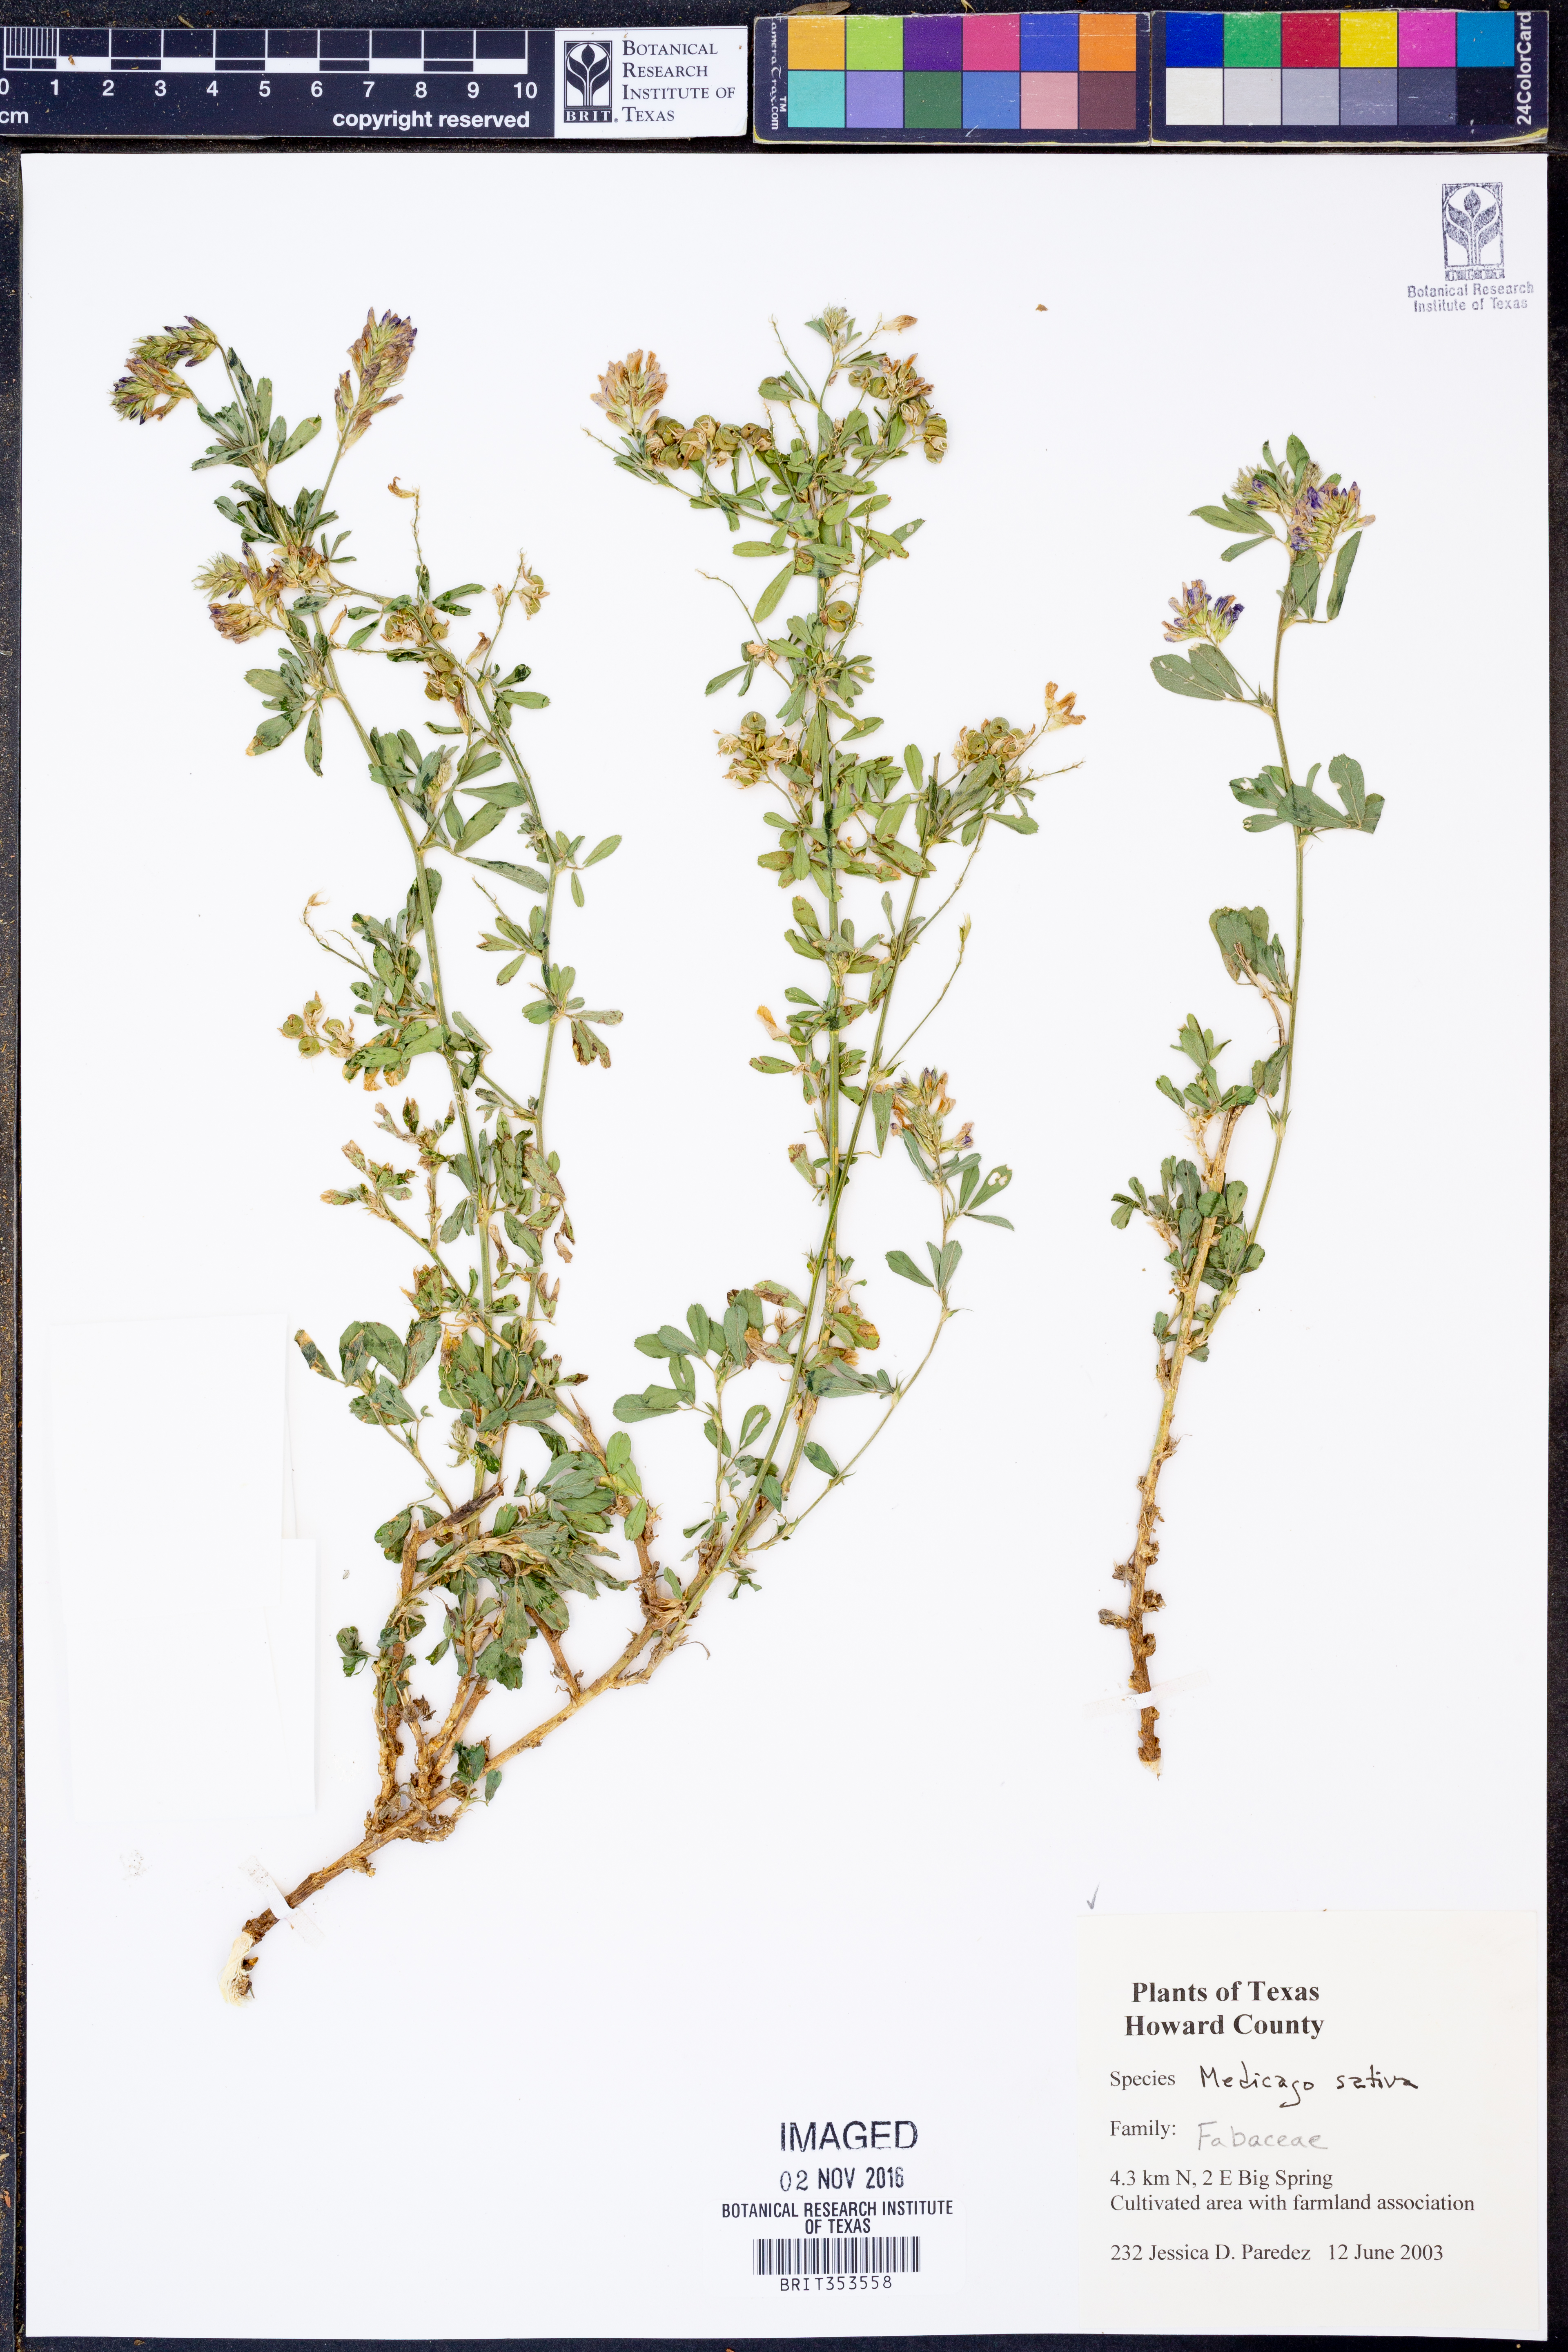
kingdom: Plantae
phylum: Tracheophyta
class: Magnoliopsida
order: Fabales
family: Fabaceae
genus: Medicago
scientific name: Medicago sativa
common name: Alfalfa
